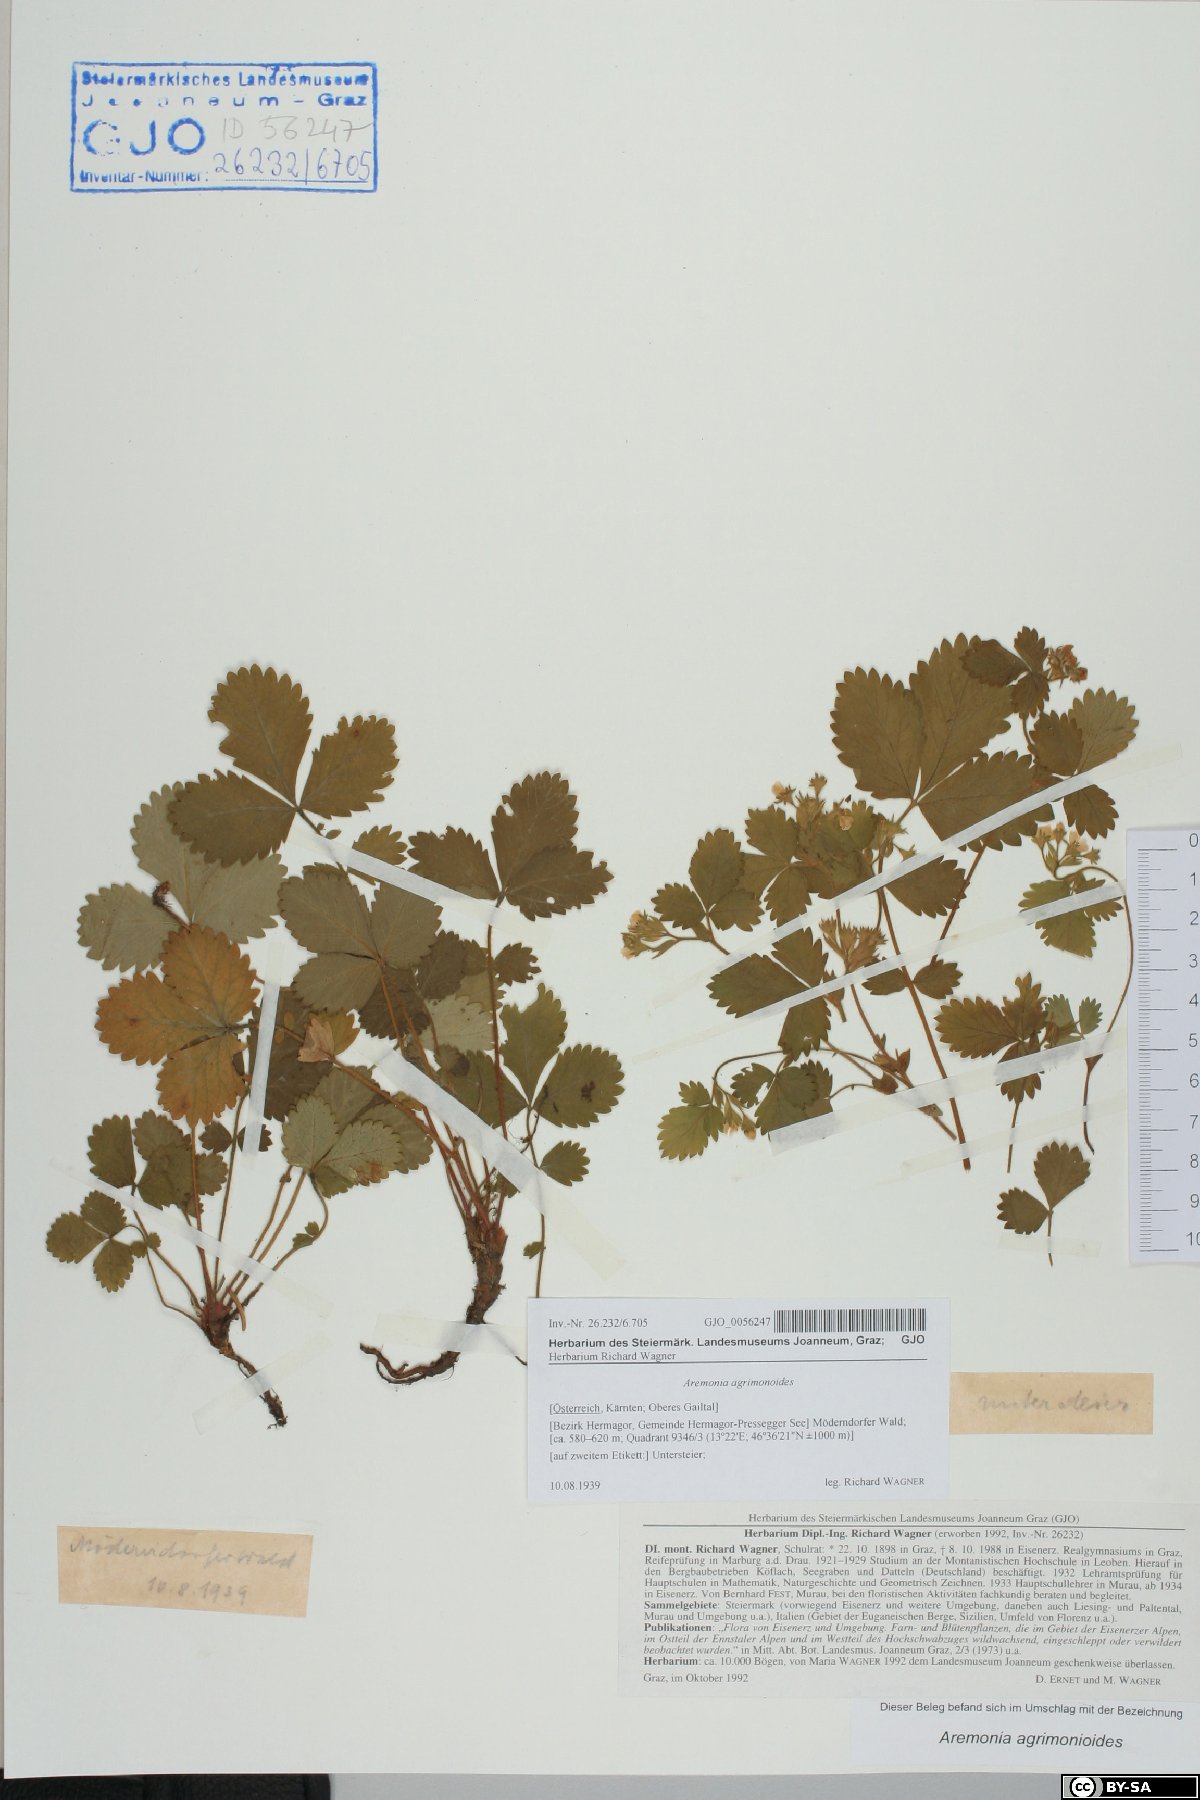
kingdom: Plantae
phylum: Tracheophyta
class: Magnoliopsida
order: Rosales
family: Rosaceae
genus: Aremonia
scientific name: Aremonia agrimonoides
